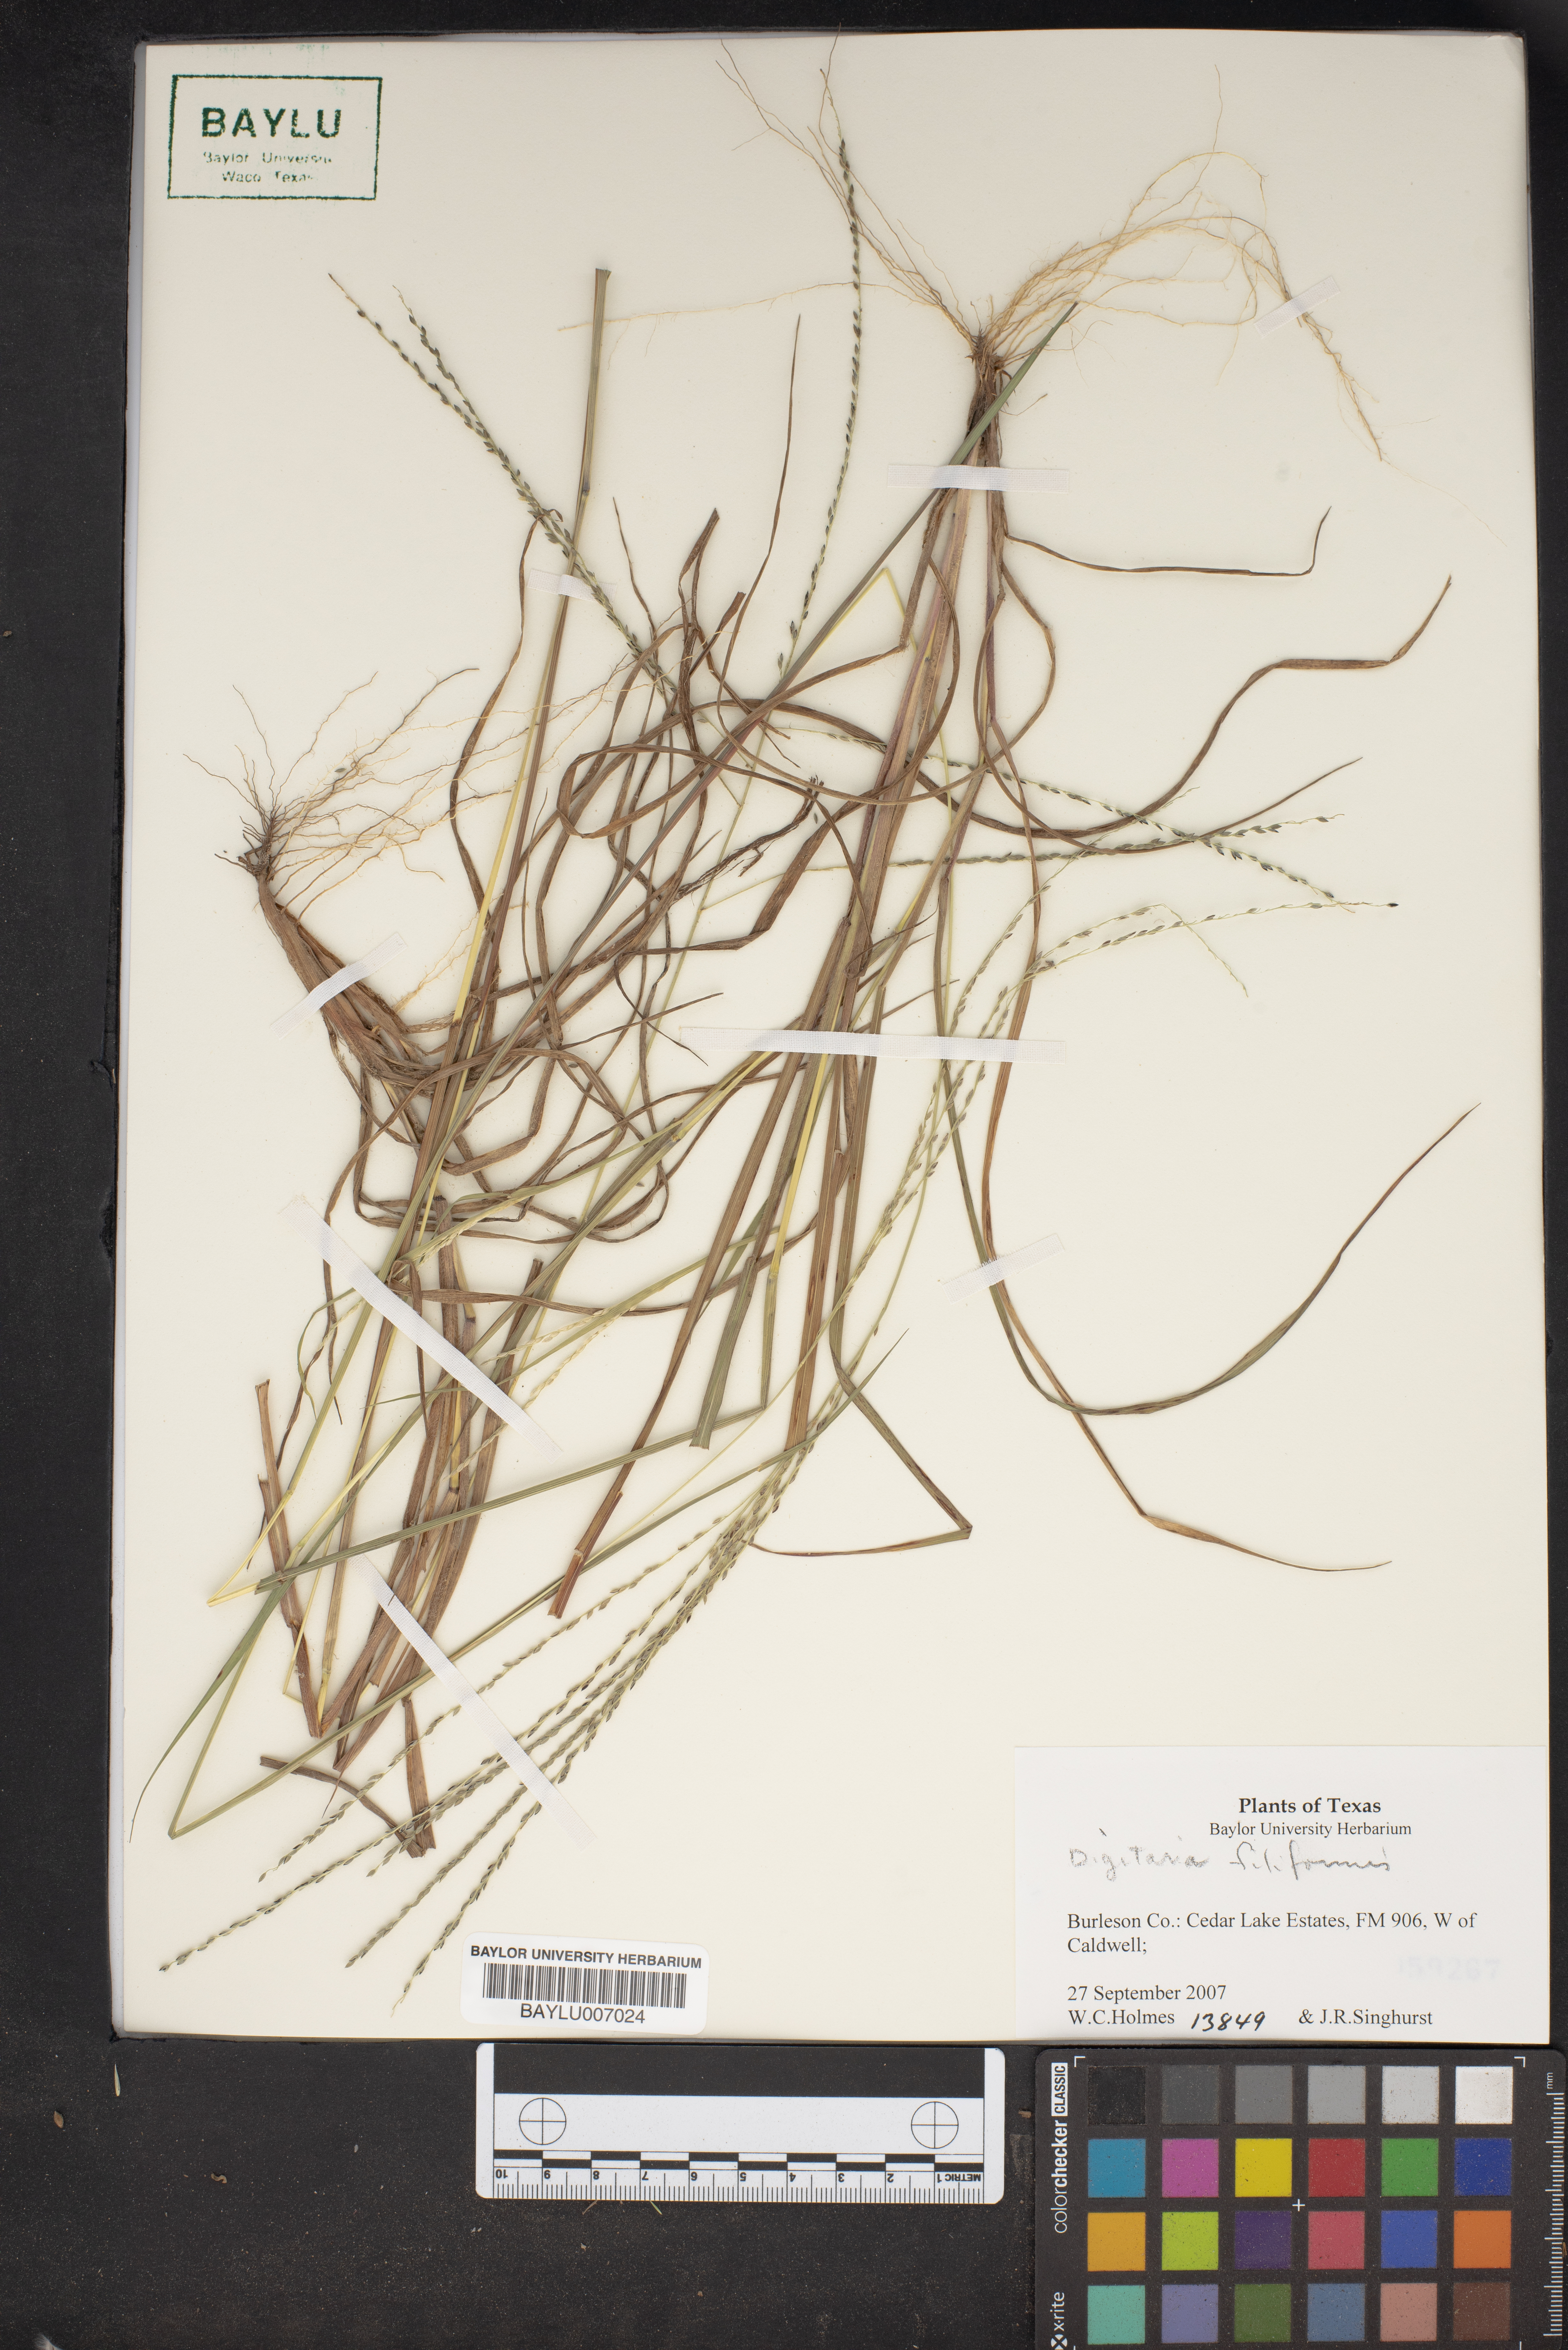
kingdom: Plantae
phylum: Tracheophyta
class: Liliopsida
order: Poales
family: Poaceae
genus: Digitaria
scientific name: Digitaria filiformis
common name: Slender crabgrass
